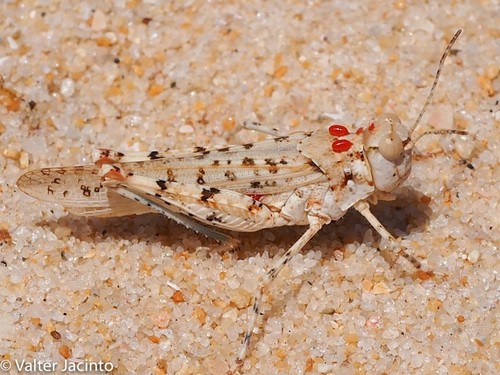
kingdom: Animalia
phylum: Arthropoda
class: Insecta
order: Orthoptera
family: Acrididae
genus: Sphingonotus
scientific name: Sphingonotus imitans
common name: Algarve sand grasshopper
